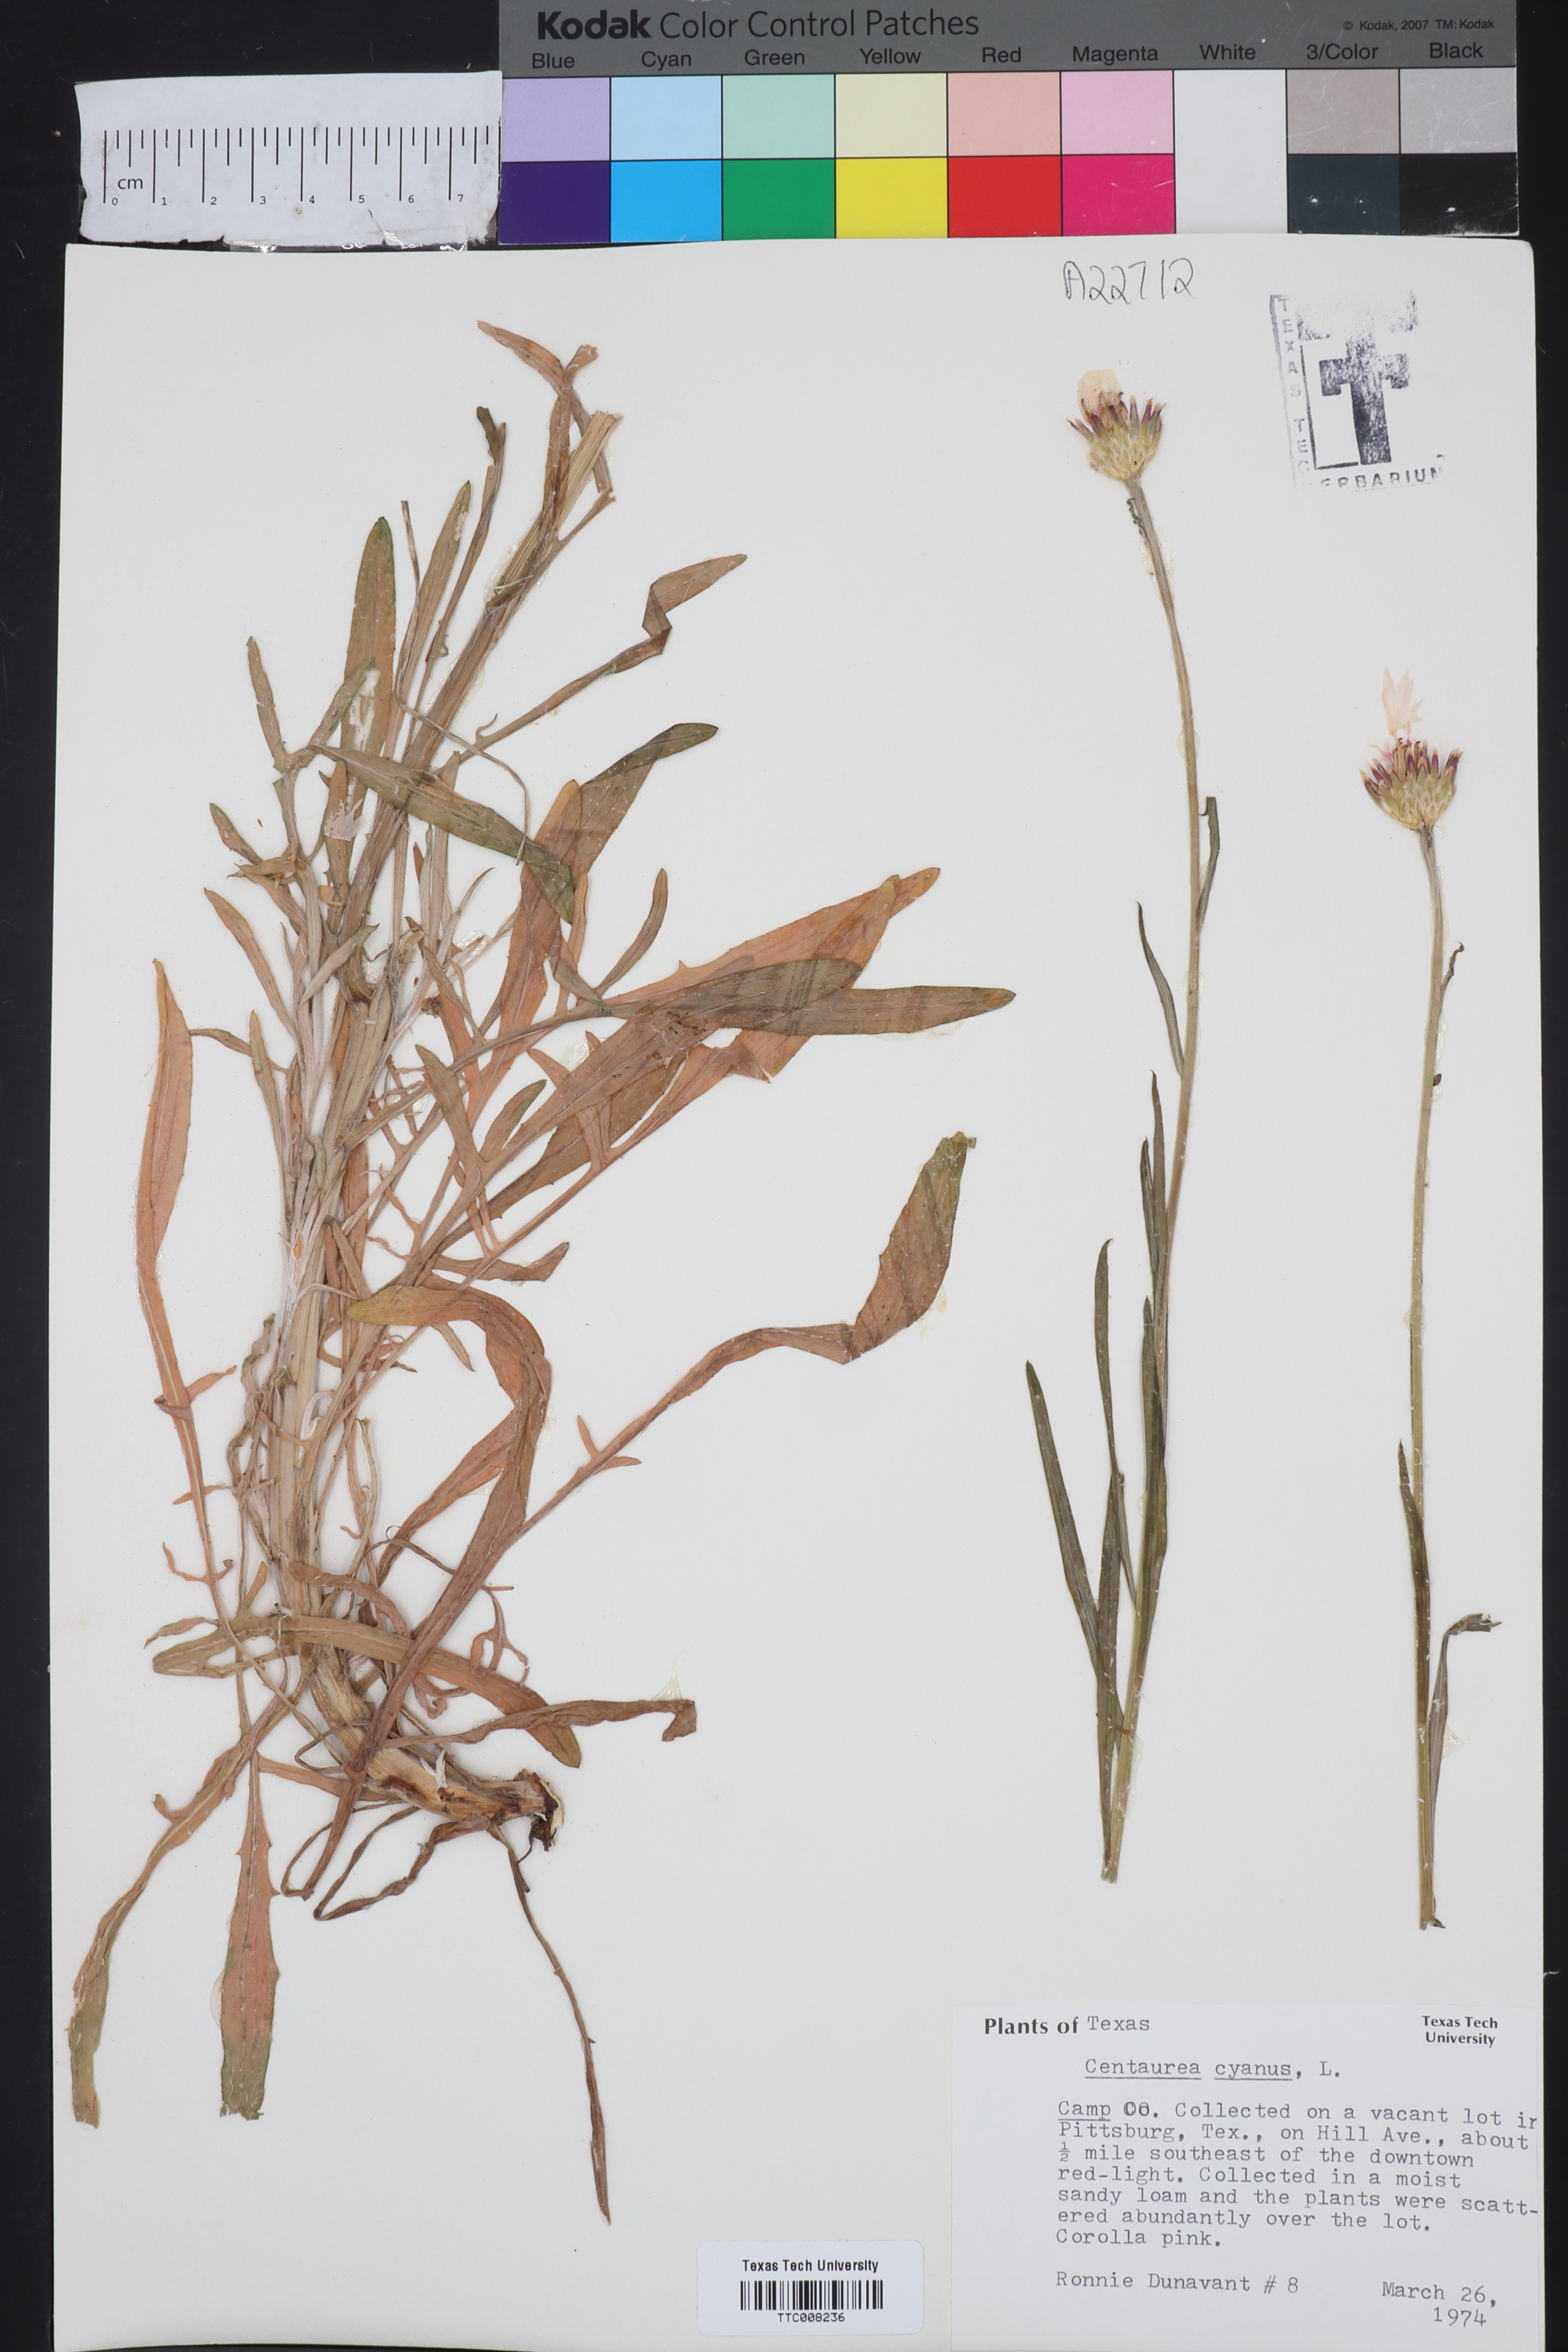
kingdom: Plantae
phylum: Tracheophyta
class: Magnoliopsida
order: Asterales
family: Asteraceae
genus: Centaurea
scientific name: Centaurea cyanus
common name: Cornflower
